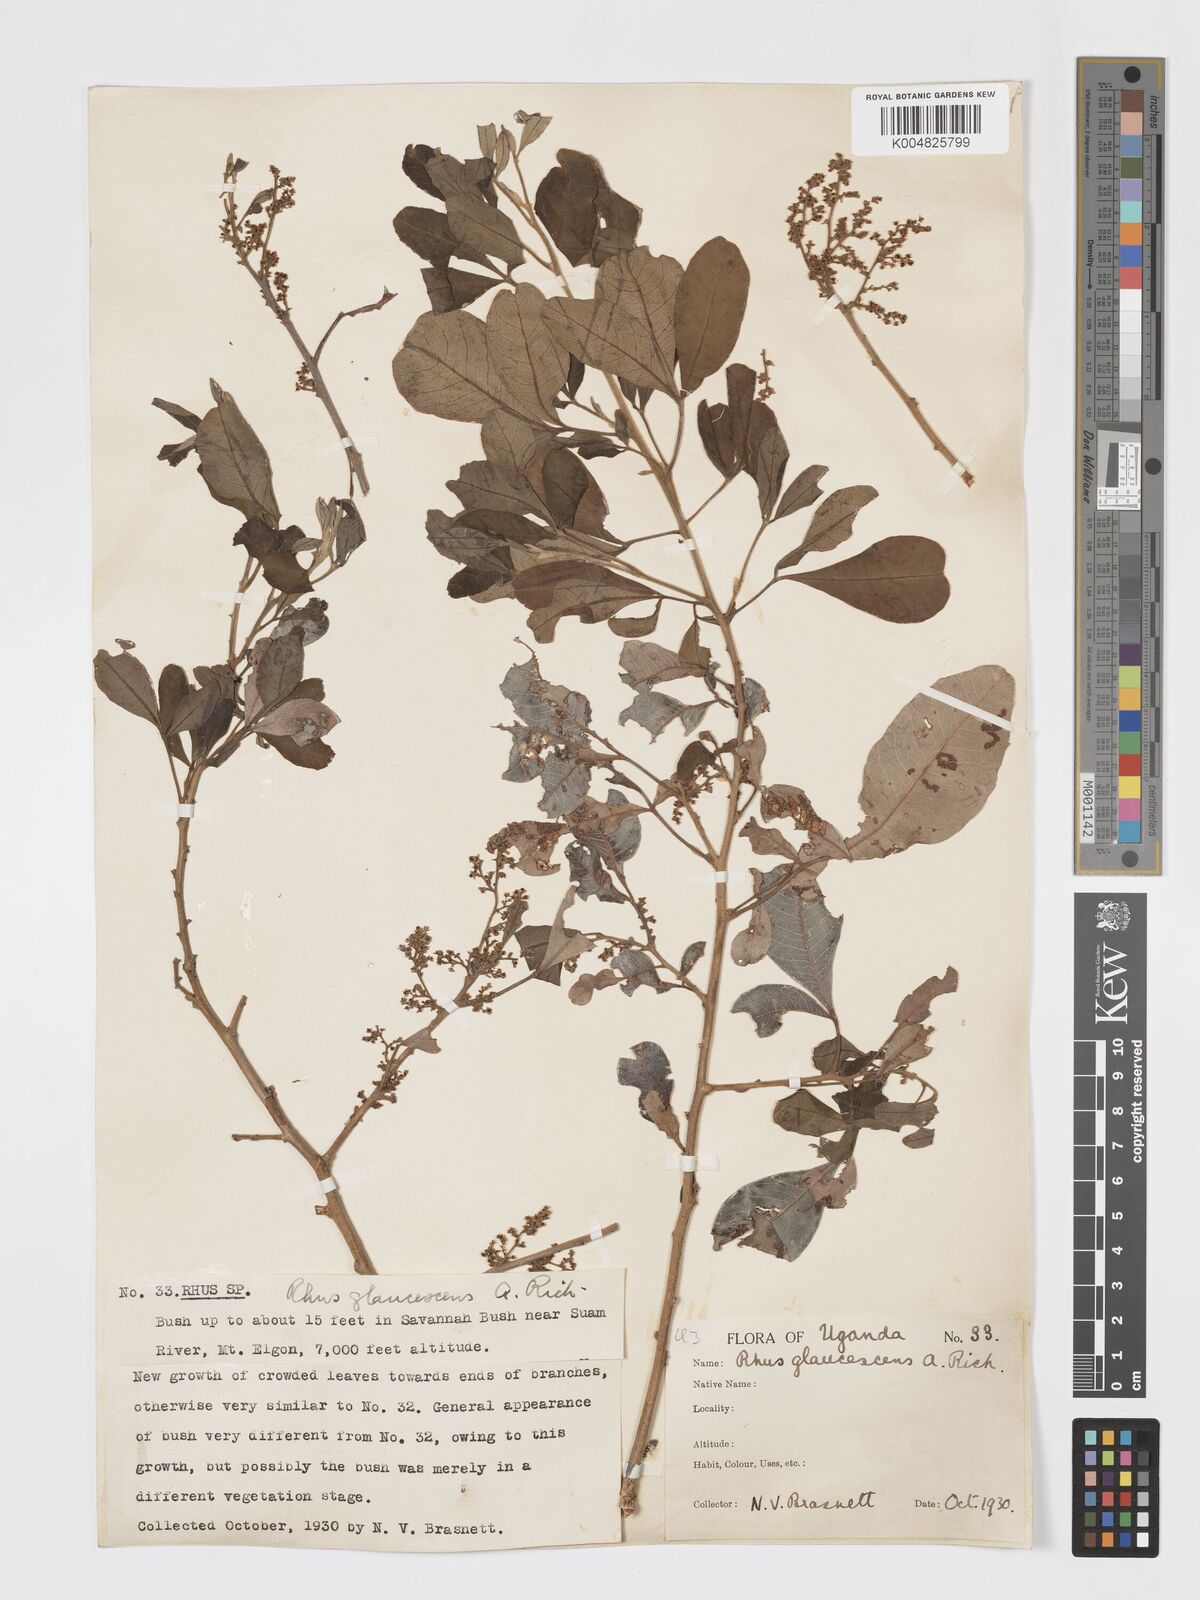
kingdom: Plantae
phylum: Tracheophyta
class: Magnoliopsida
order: Sapindales
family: Anacardiaceae
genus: Searsia
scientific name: Searsia natalensis
